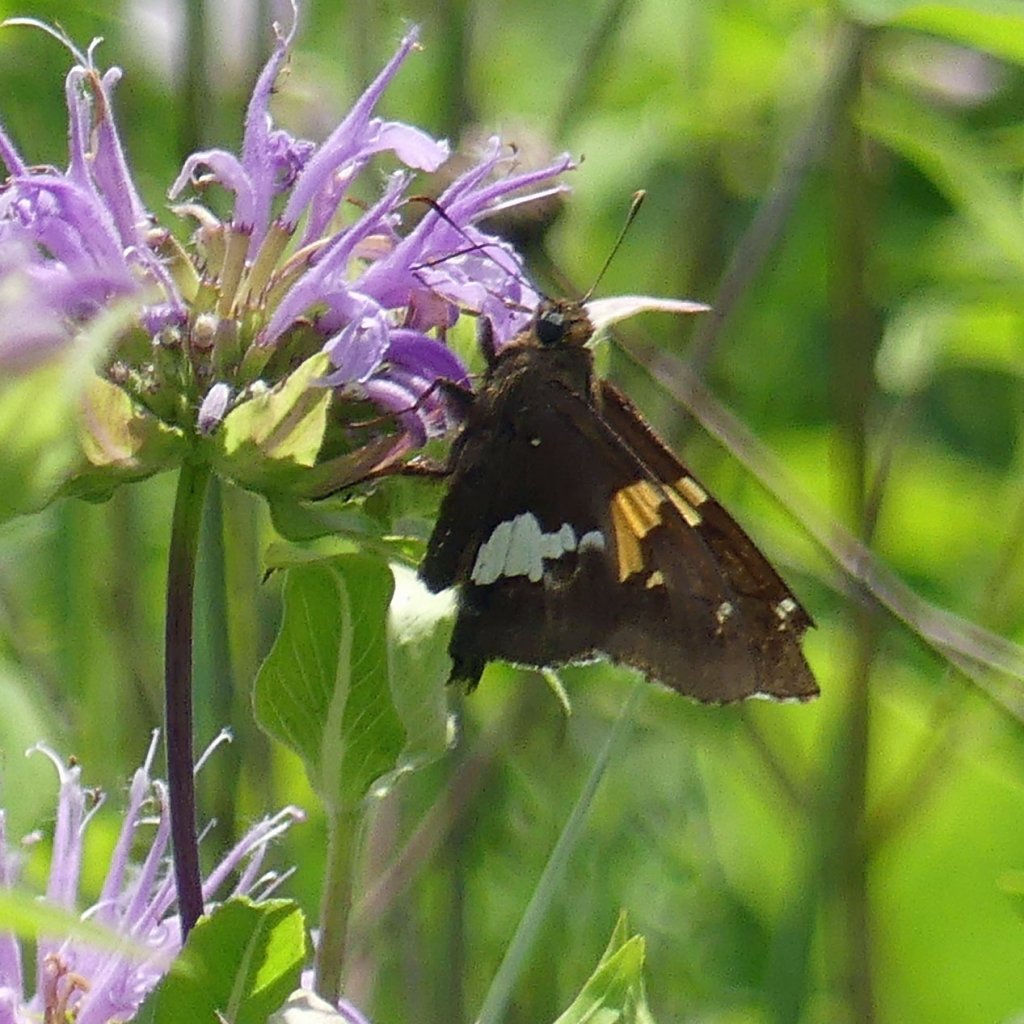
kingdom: Animalia
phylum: Arthropoda
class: Insecta
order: Lepidoptera
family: Hesperiidae
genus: Epargyreus
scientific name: Epargyreus clarus
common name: Silver-spotted Skipper
